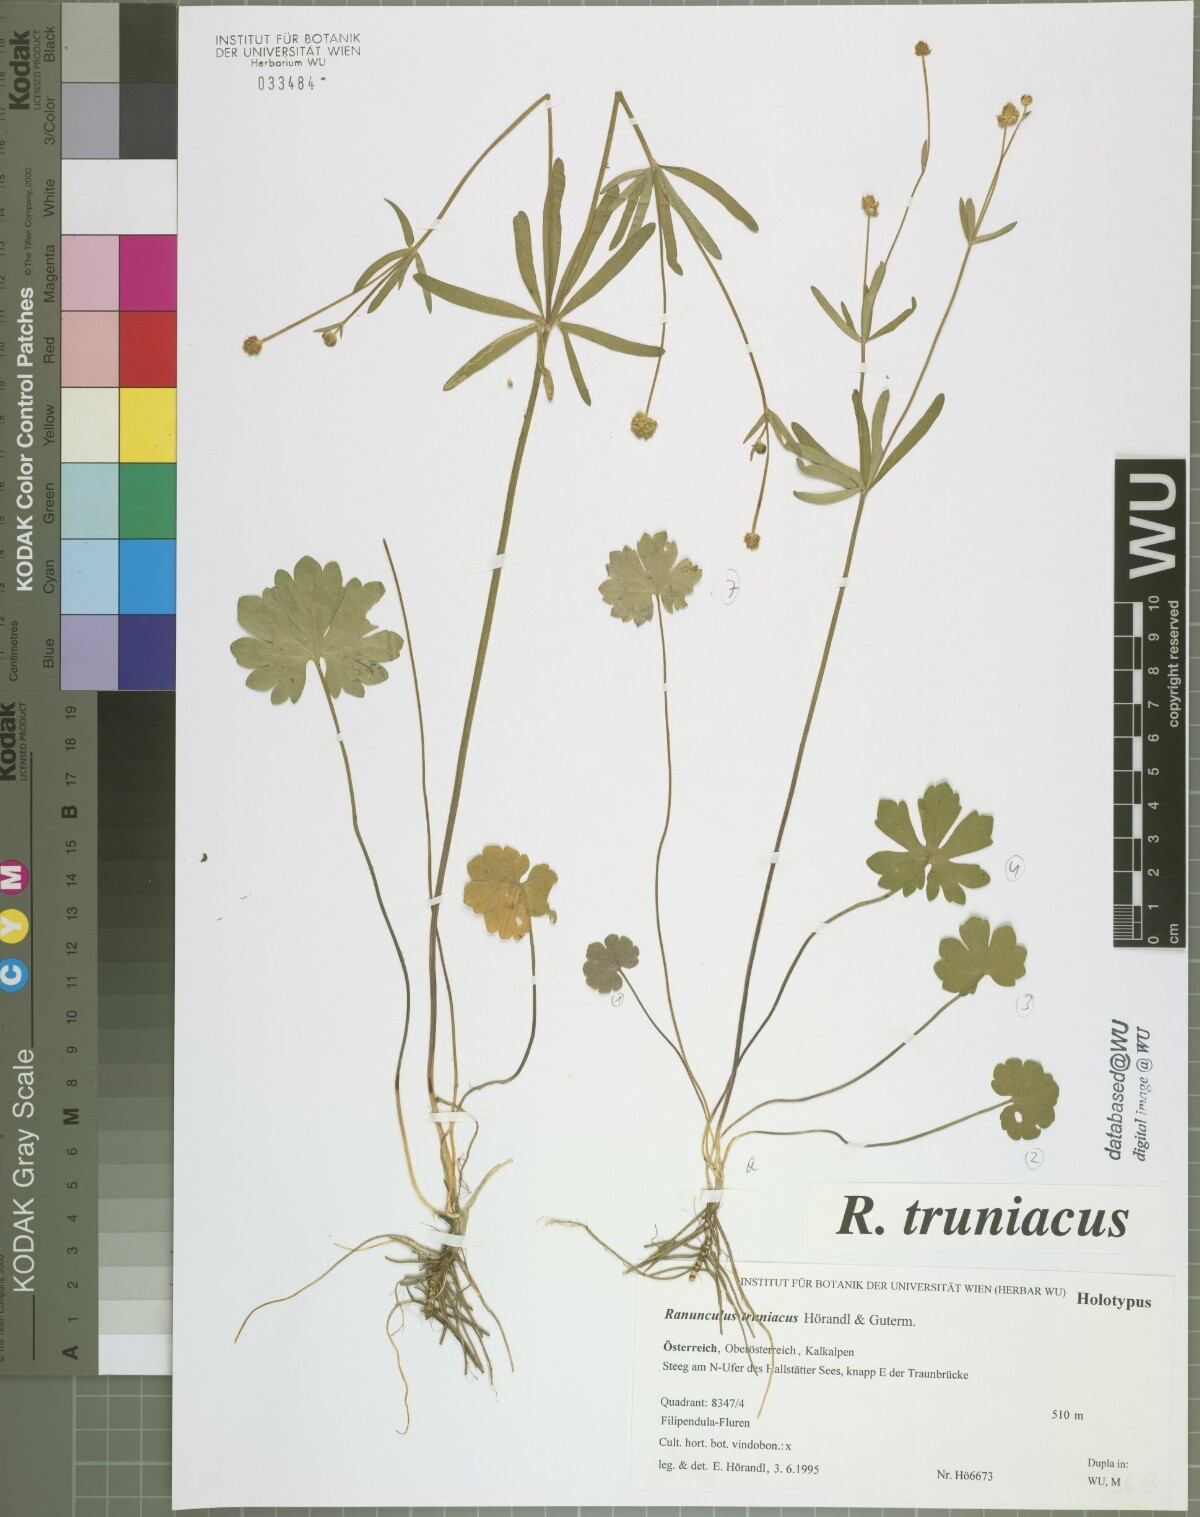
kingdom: Plantae
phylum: Tracheophyta
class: Magnoliopsida
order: Ranunculales
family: Ranunculaceae
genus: Ranunculus
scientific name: Ranunculus truniacus
